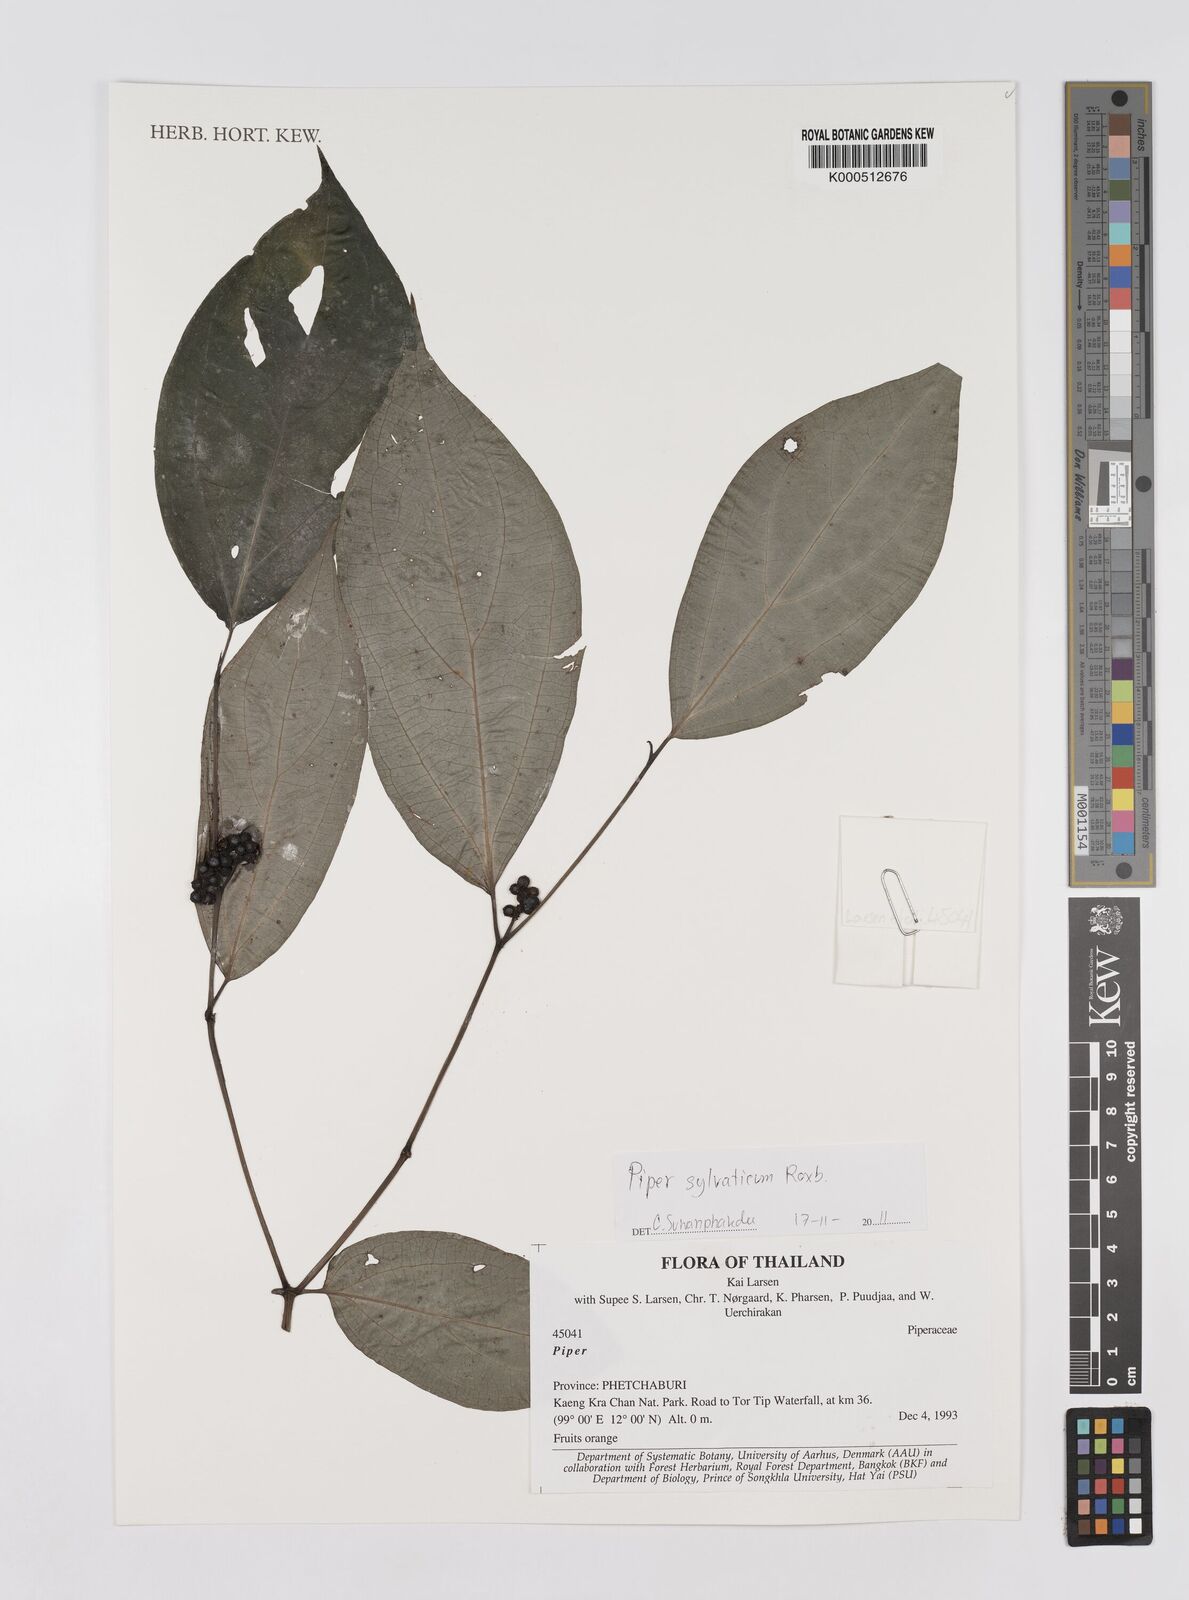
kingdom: Plantae
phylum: Tracheophyta
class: Magnoliopsida
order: Piperales
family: Piperaceae
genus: Piper
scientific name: Piper
